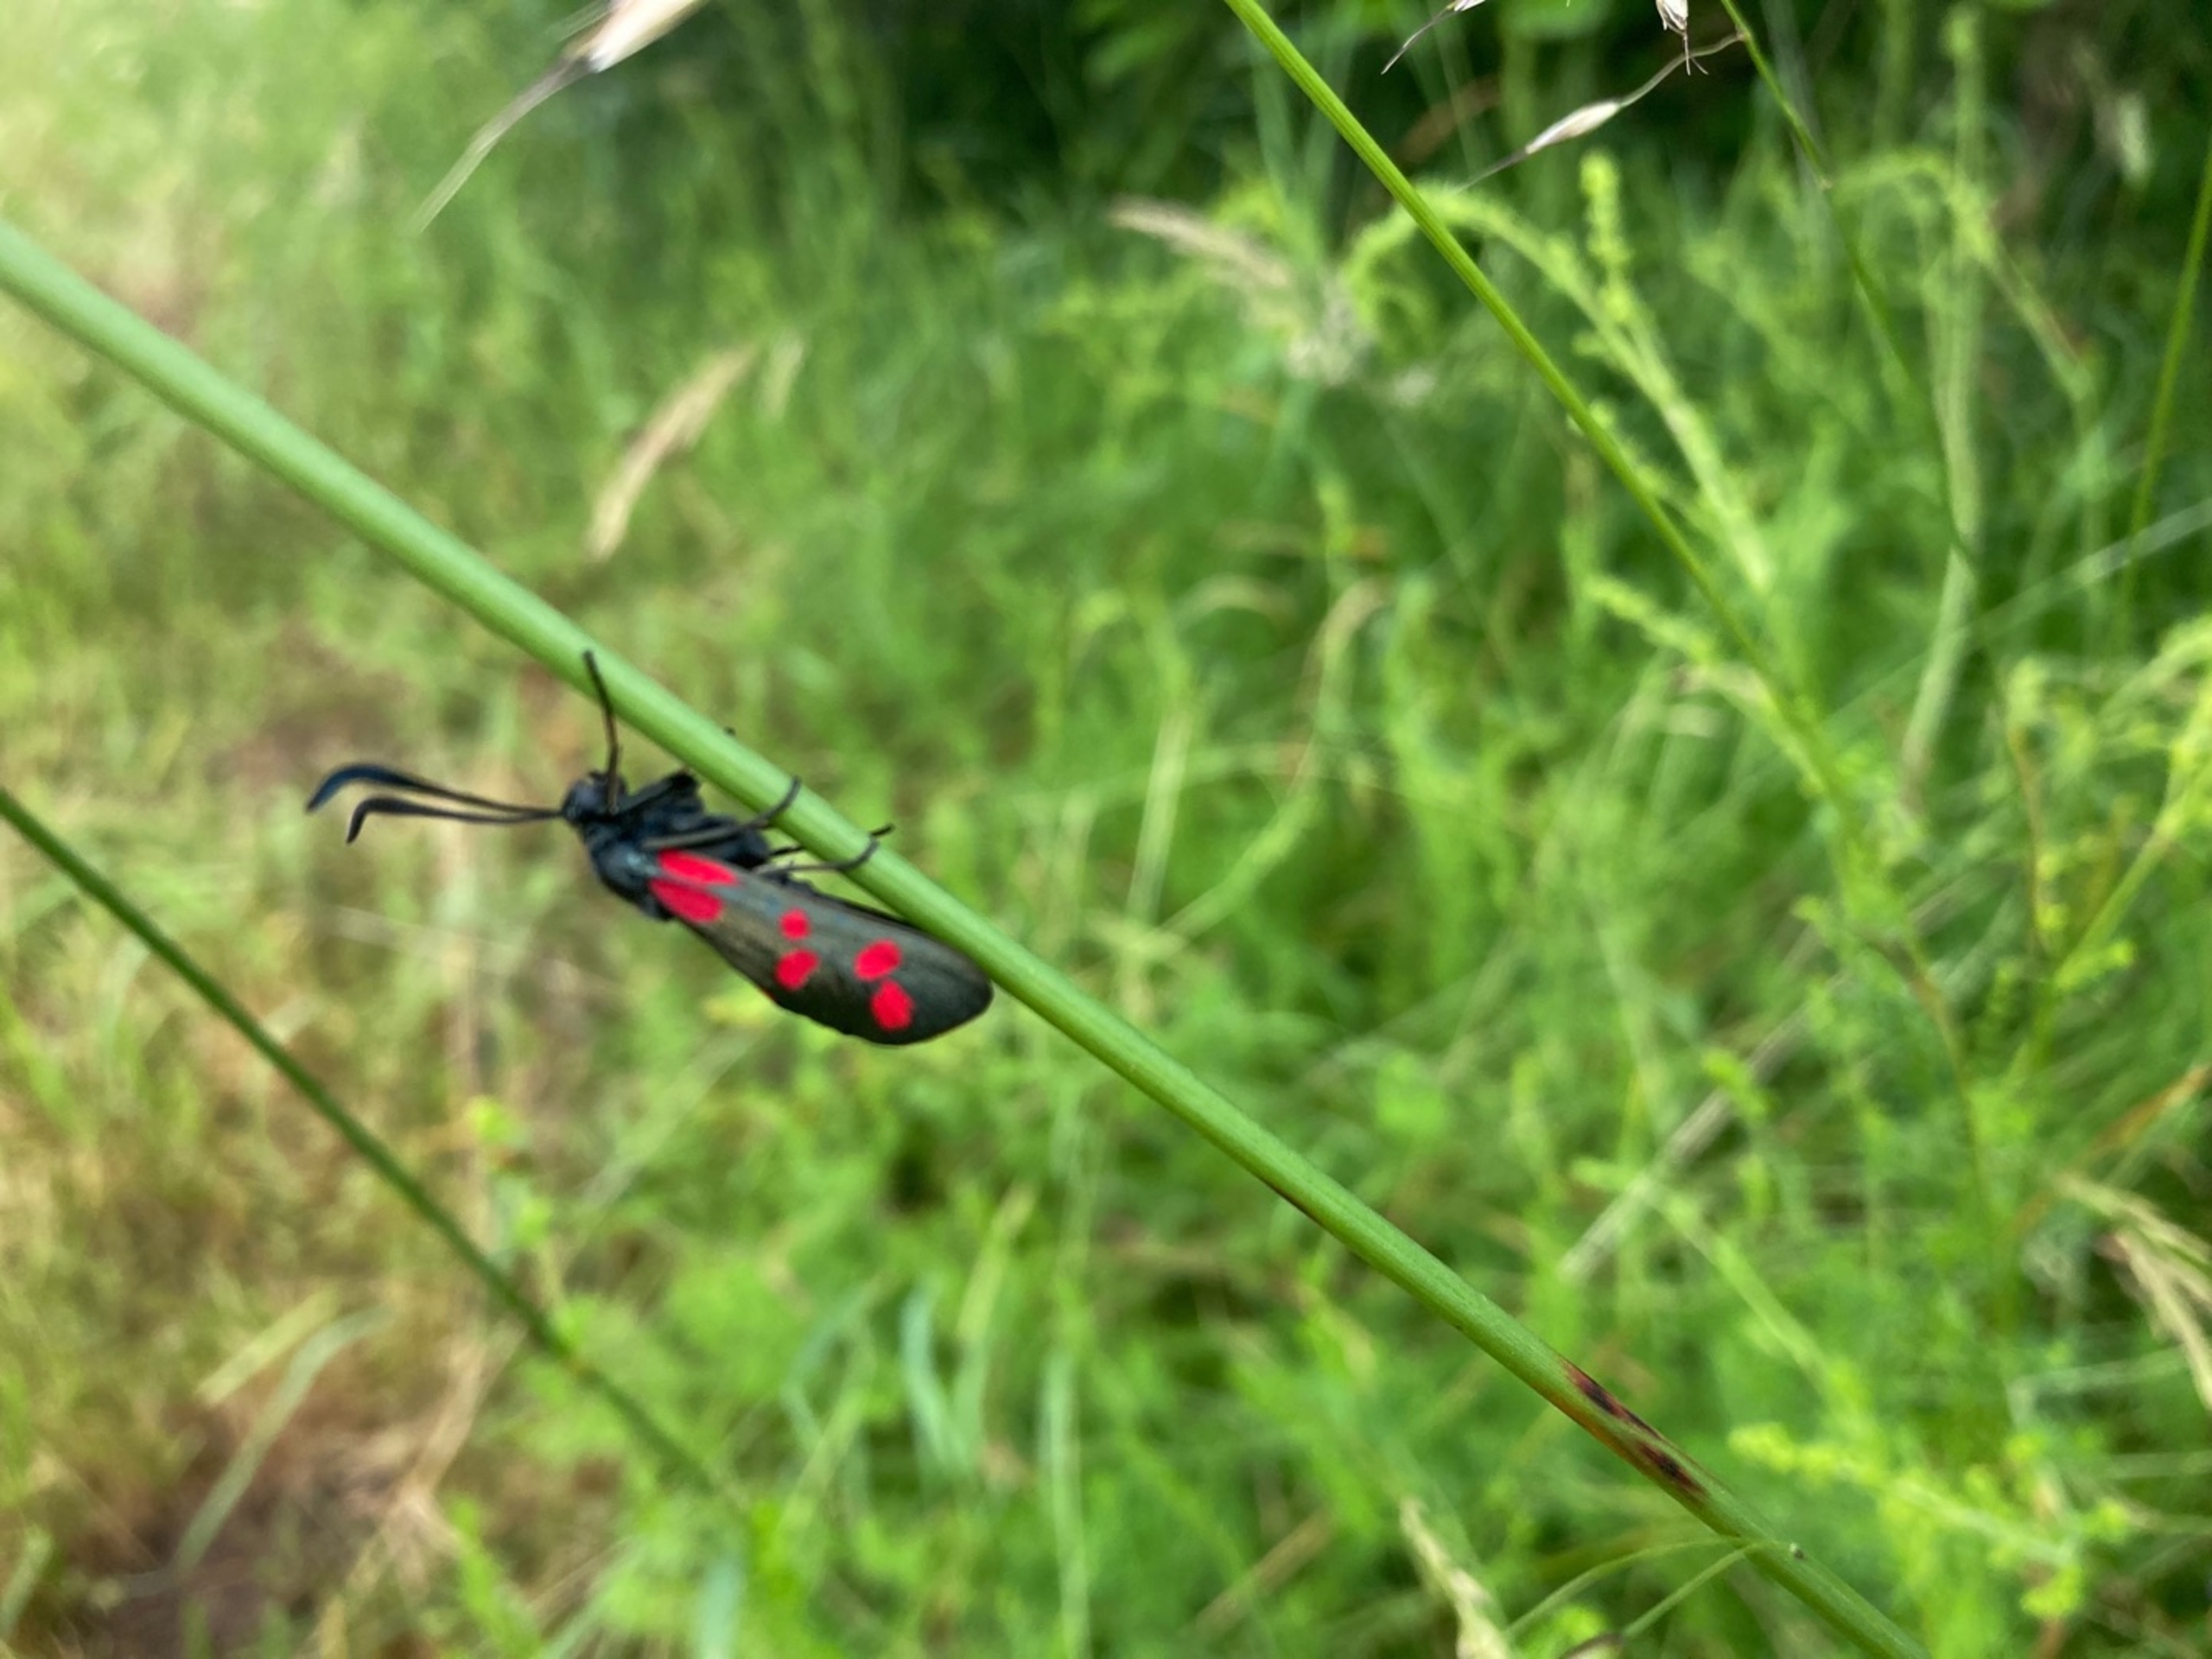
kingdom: Animalia
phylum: Arthropoda
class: Insecta
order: Lepidoptera
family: Zygaenidae
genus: Zygaena
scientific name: Zygaena filipendulae
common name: Seksplettet køllesværmer
